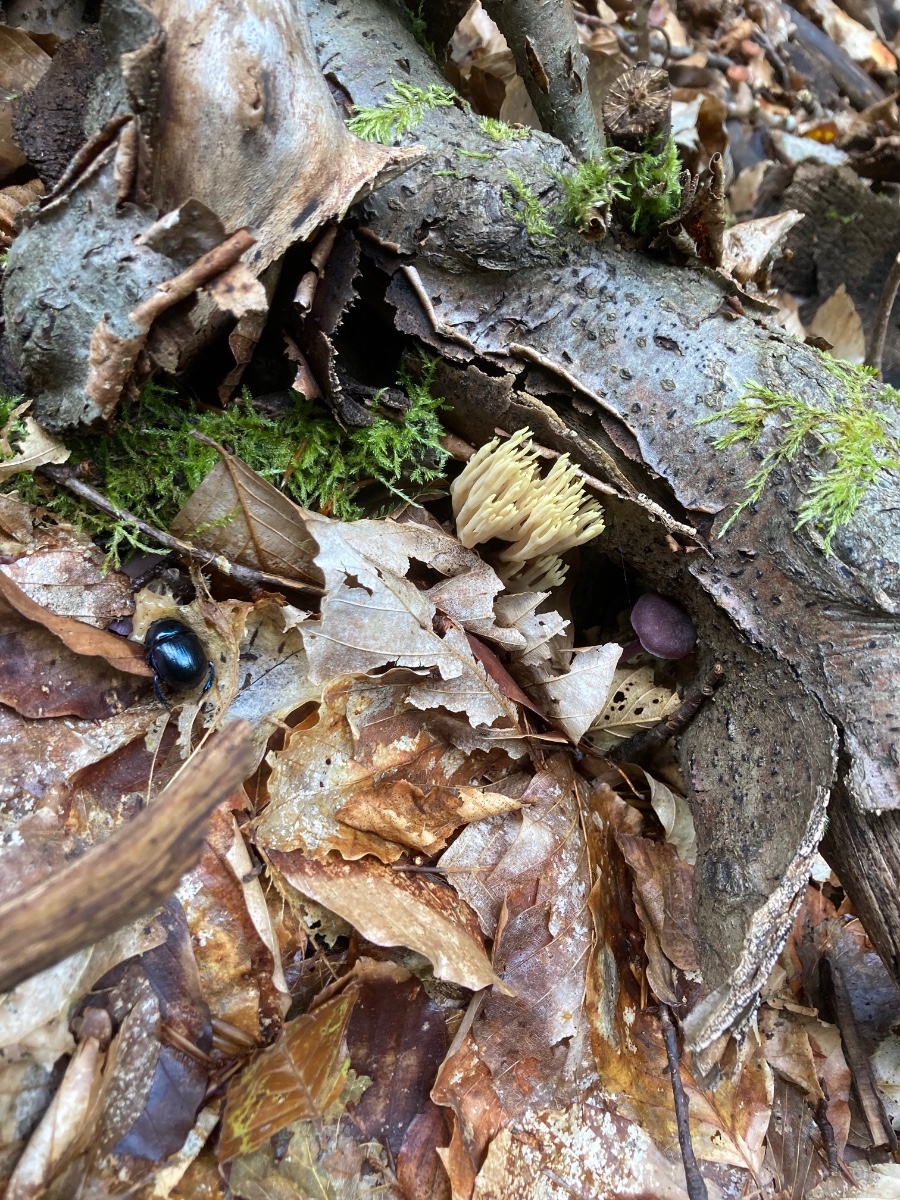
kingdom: Fungi
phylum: Basidiomycota
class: Agaricomycetes
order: Gomphales
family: Gomphaceae
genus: Ramaria
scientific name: Ramaria stricta
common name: rank koralsvamp
